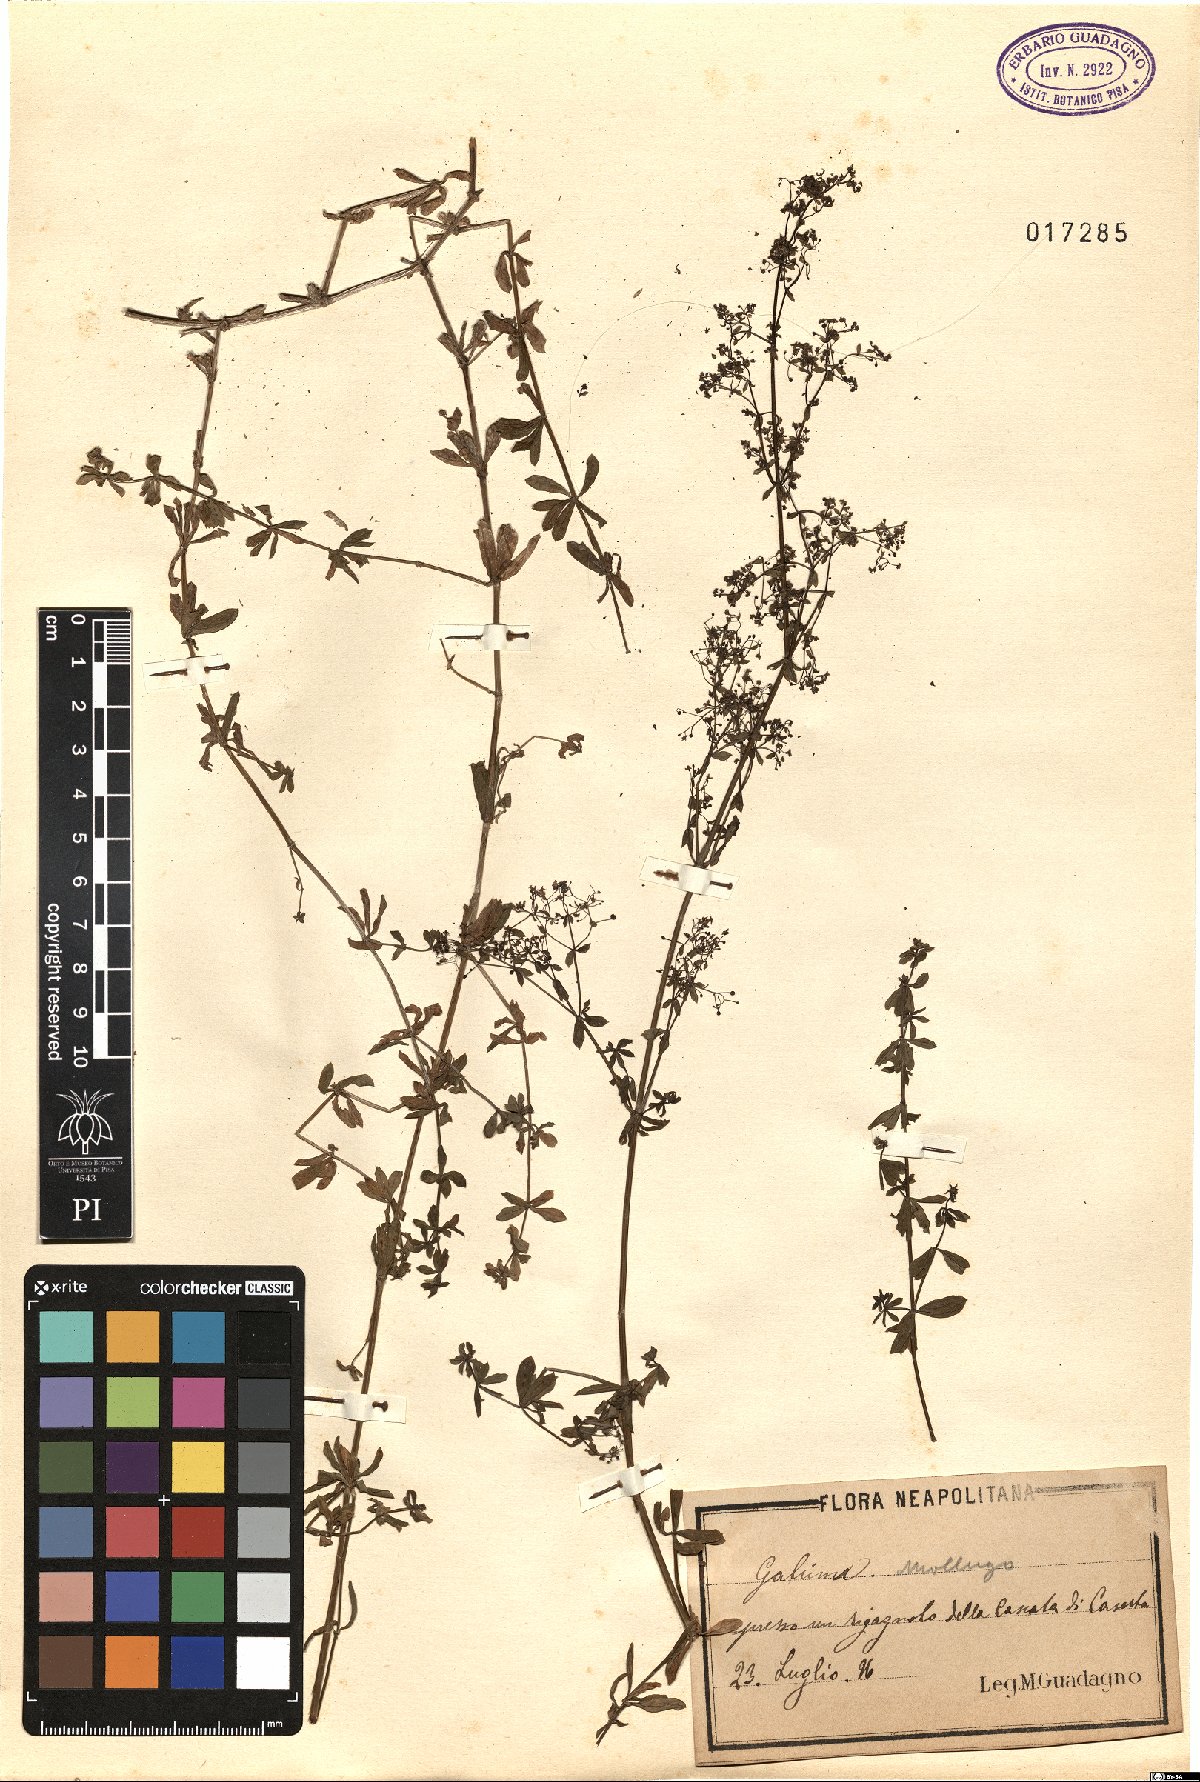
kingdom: Plantae
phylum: Tracheophyta
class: Magnoliopsida
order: Gentianales
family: Rubiaceae
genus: Galium
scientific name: Galium mollugo
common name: Hedge bedstraw
